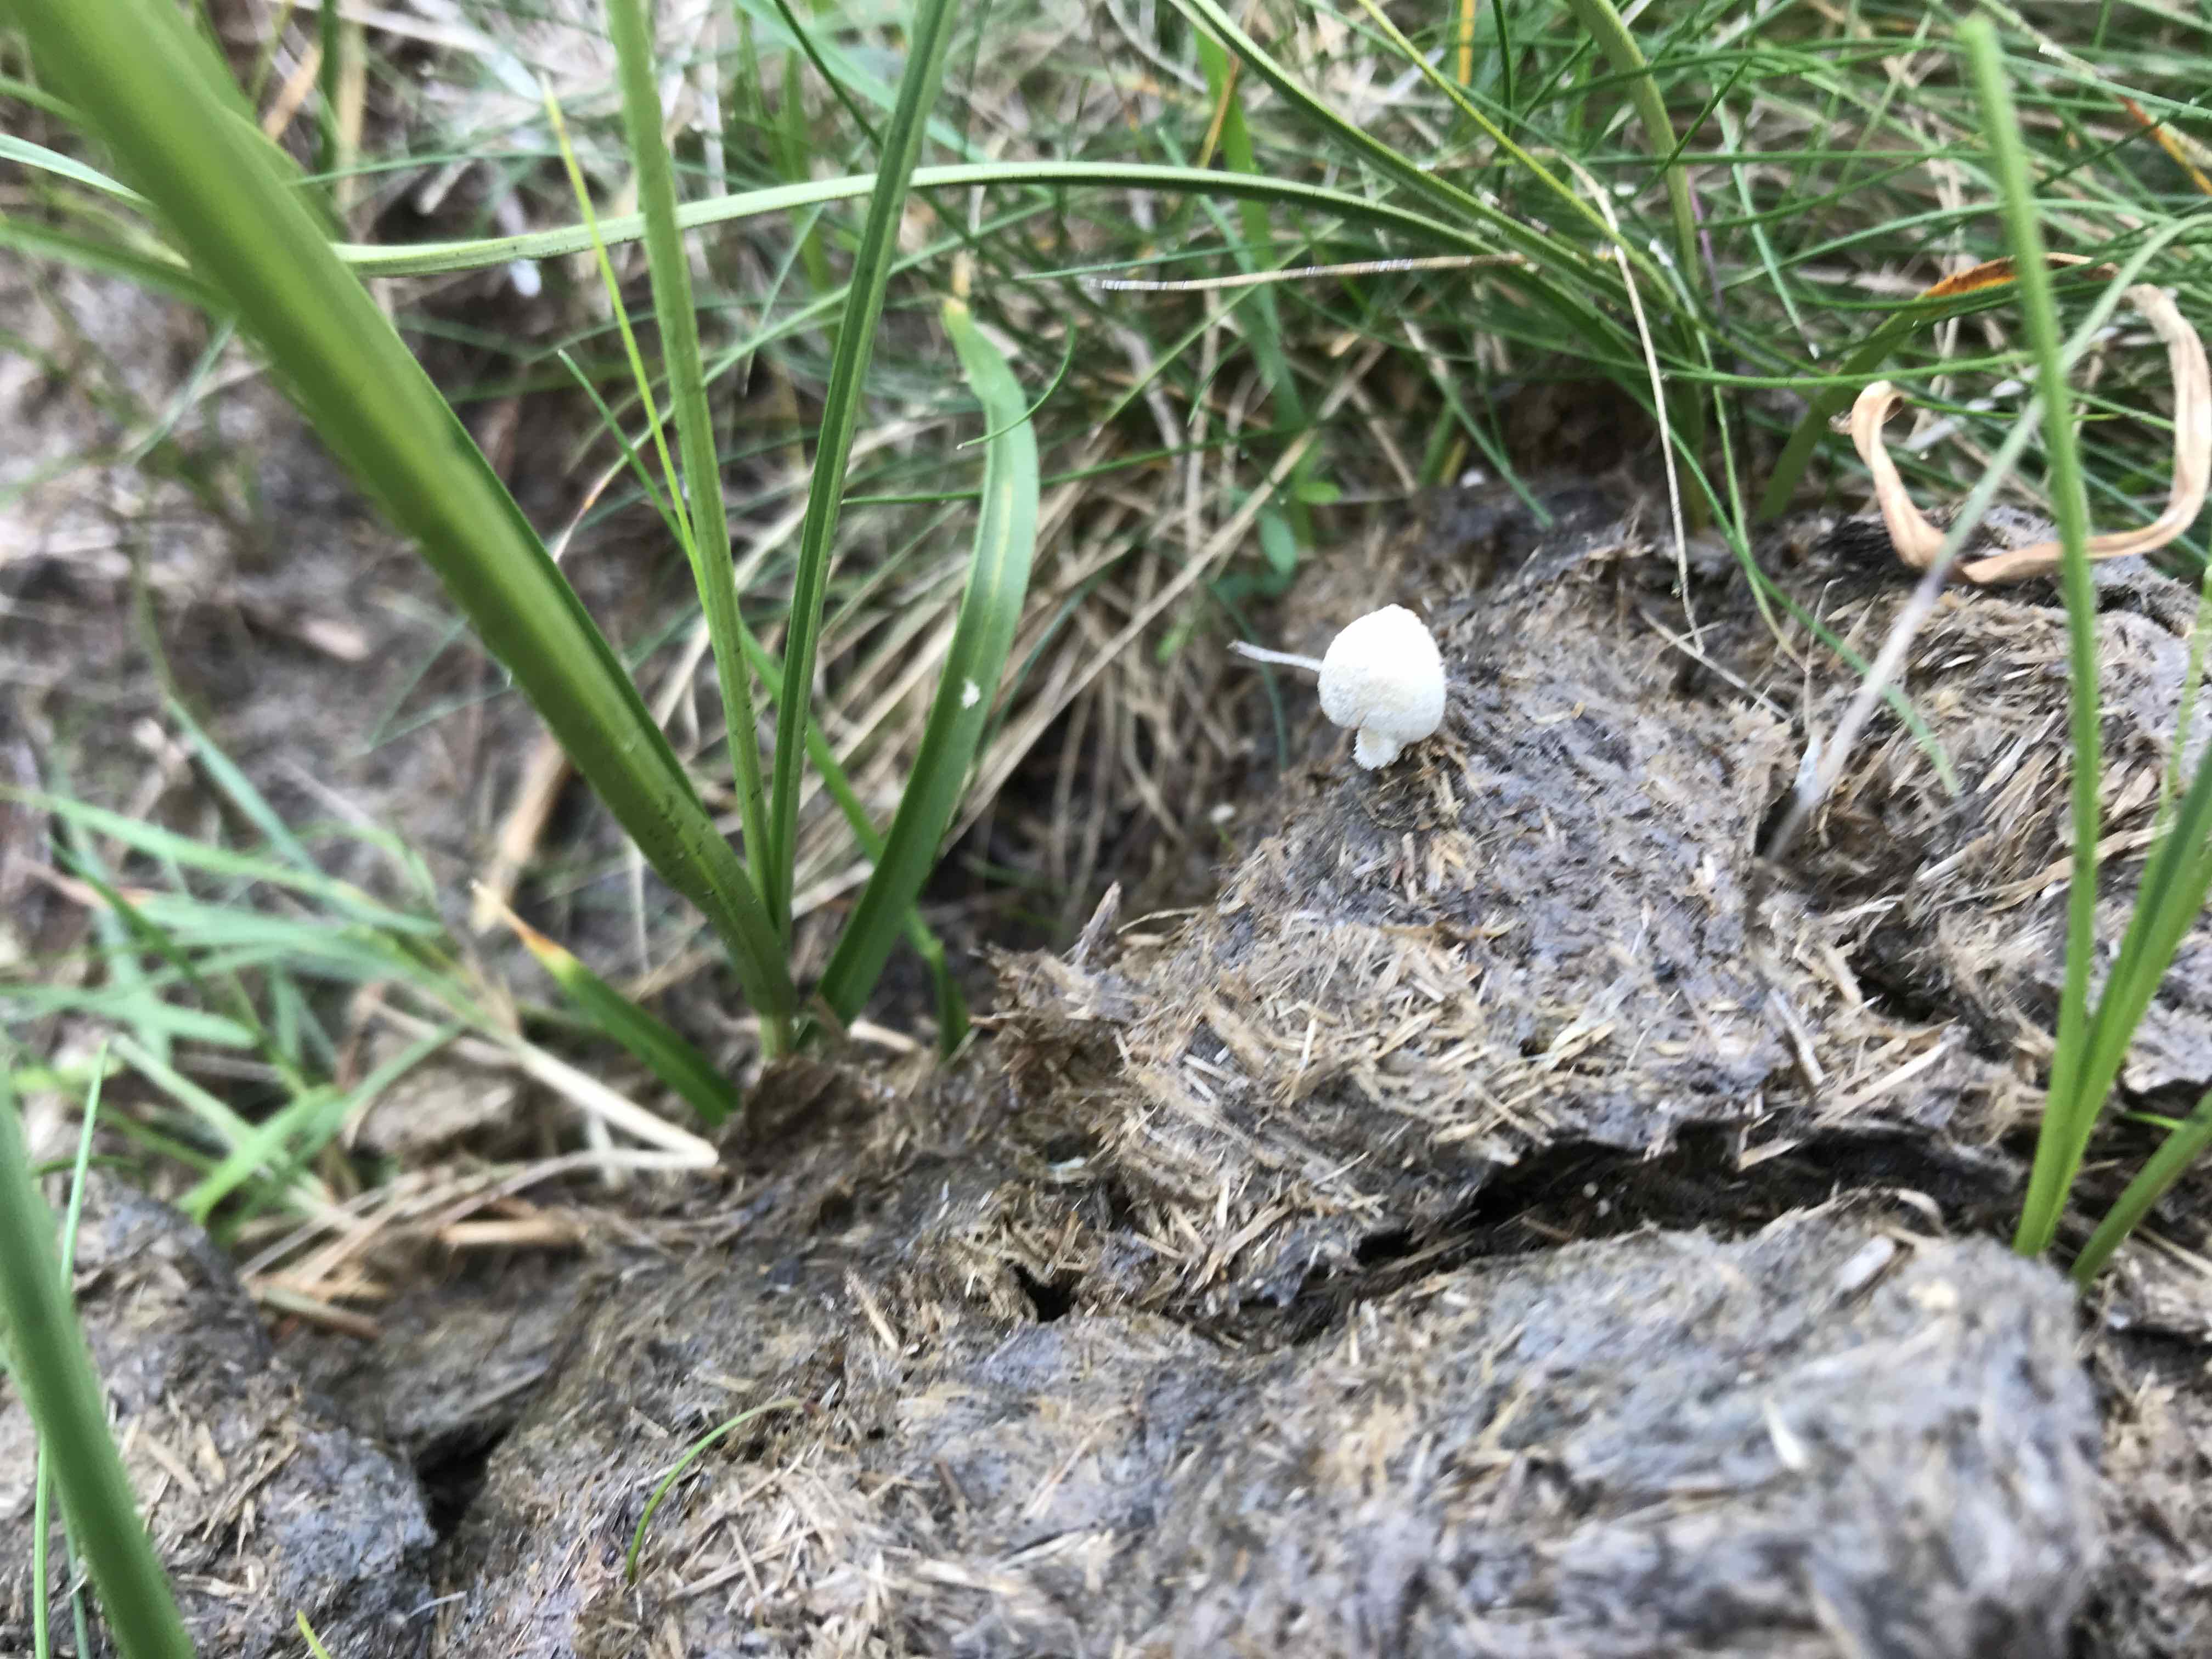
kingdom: Fungi
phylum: Basidiomycota
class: Agaricomycetes
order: Agaricales
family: Psathyrellaceae
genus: Coprinopsis
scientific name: Coprinopsis nivea
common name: snehvid blækhat
